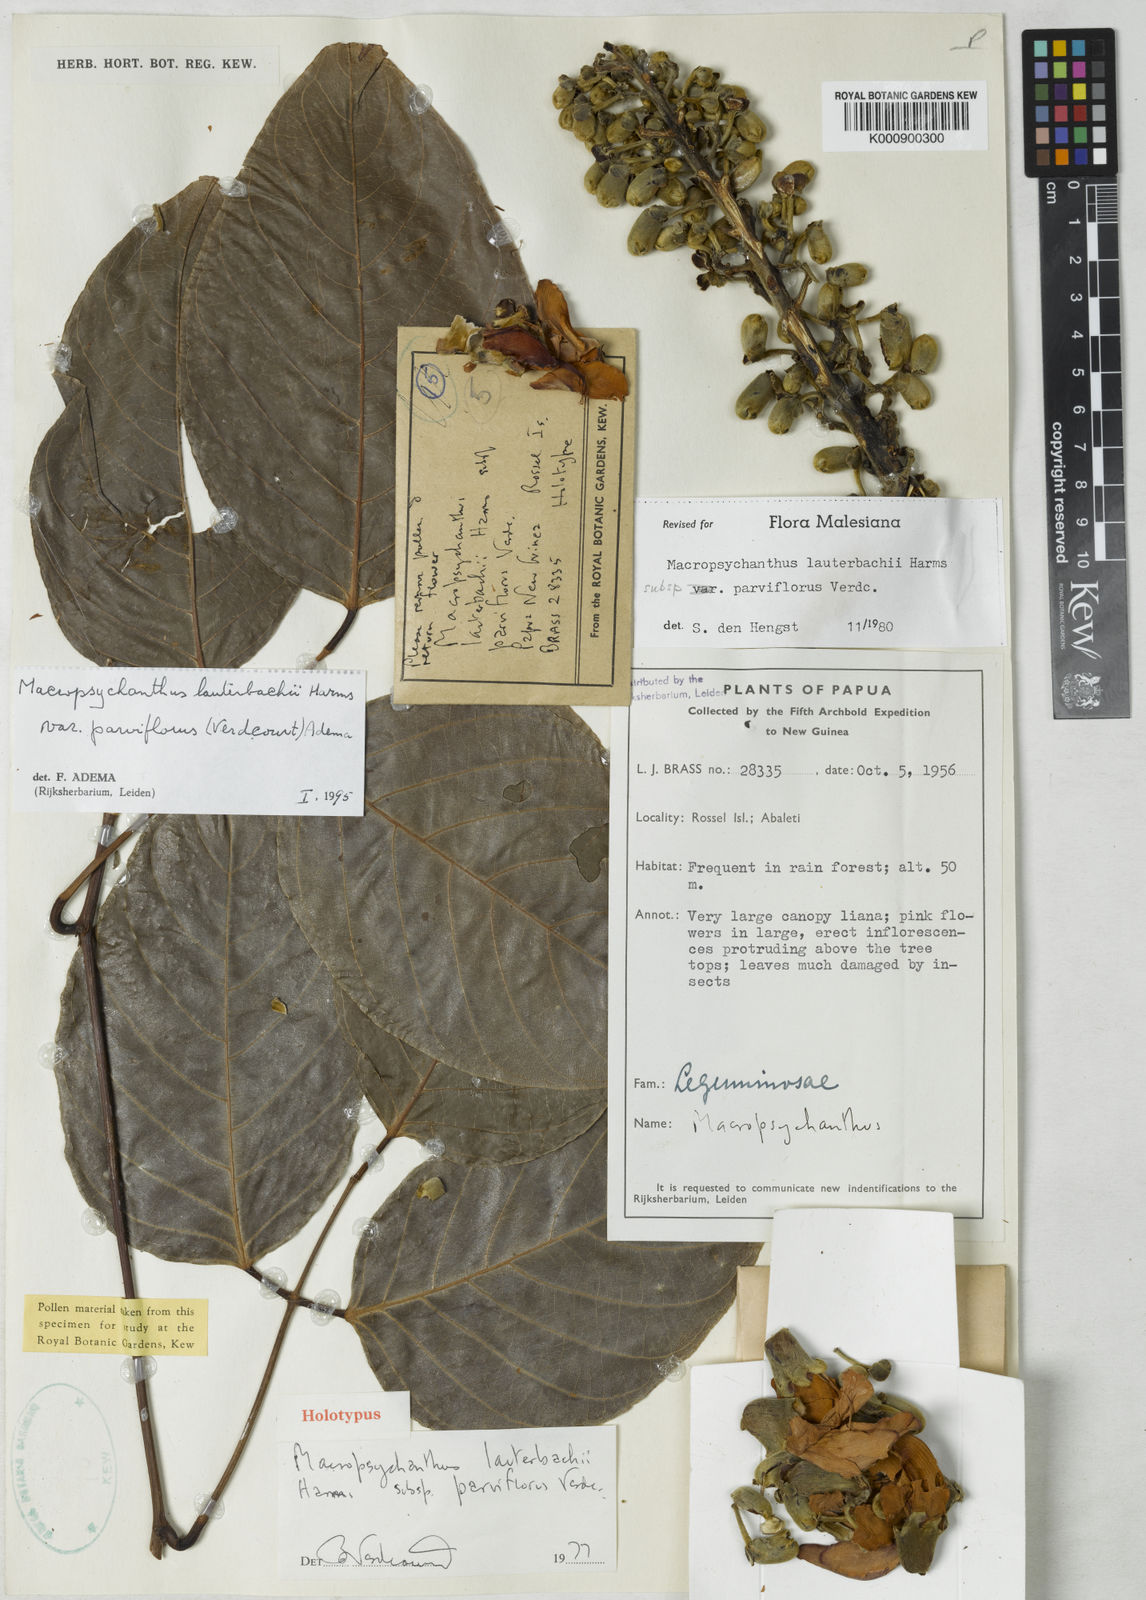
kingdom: Plantae
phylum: Tracheophyta
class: Magnoliopsida
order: Fabales
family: Fabaceae
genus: Macropsychanthus
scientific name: Macropsychanthus lauterbachii
